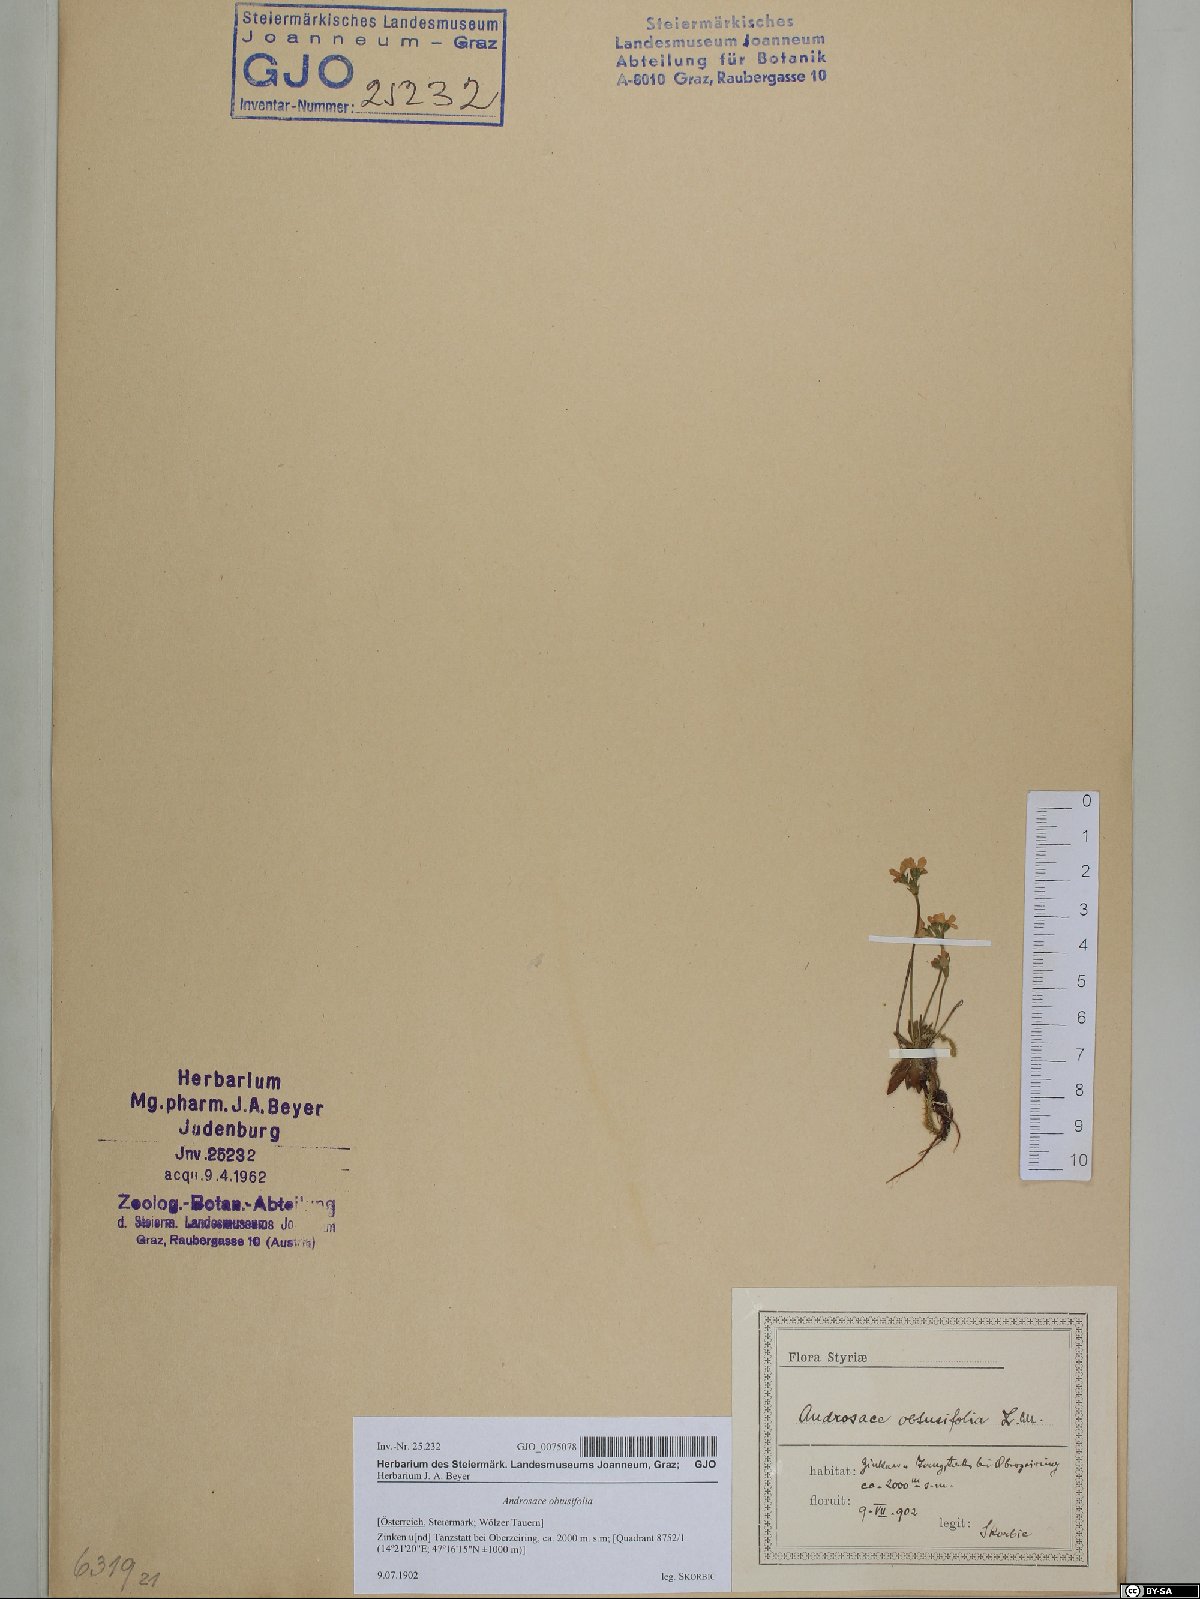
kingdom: Plantae
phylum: Tracheophyta
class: Magnoliopsida
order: Ericales
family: Primulaceae
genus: Androsace
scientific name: Androsace obtusifolia
